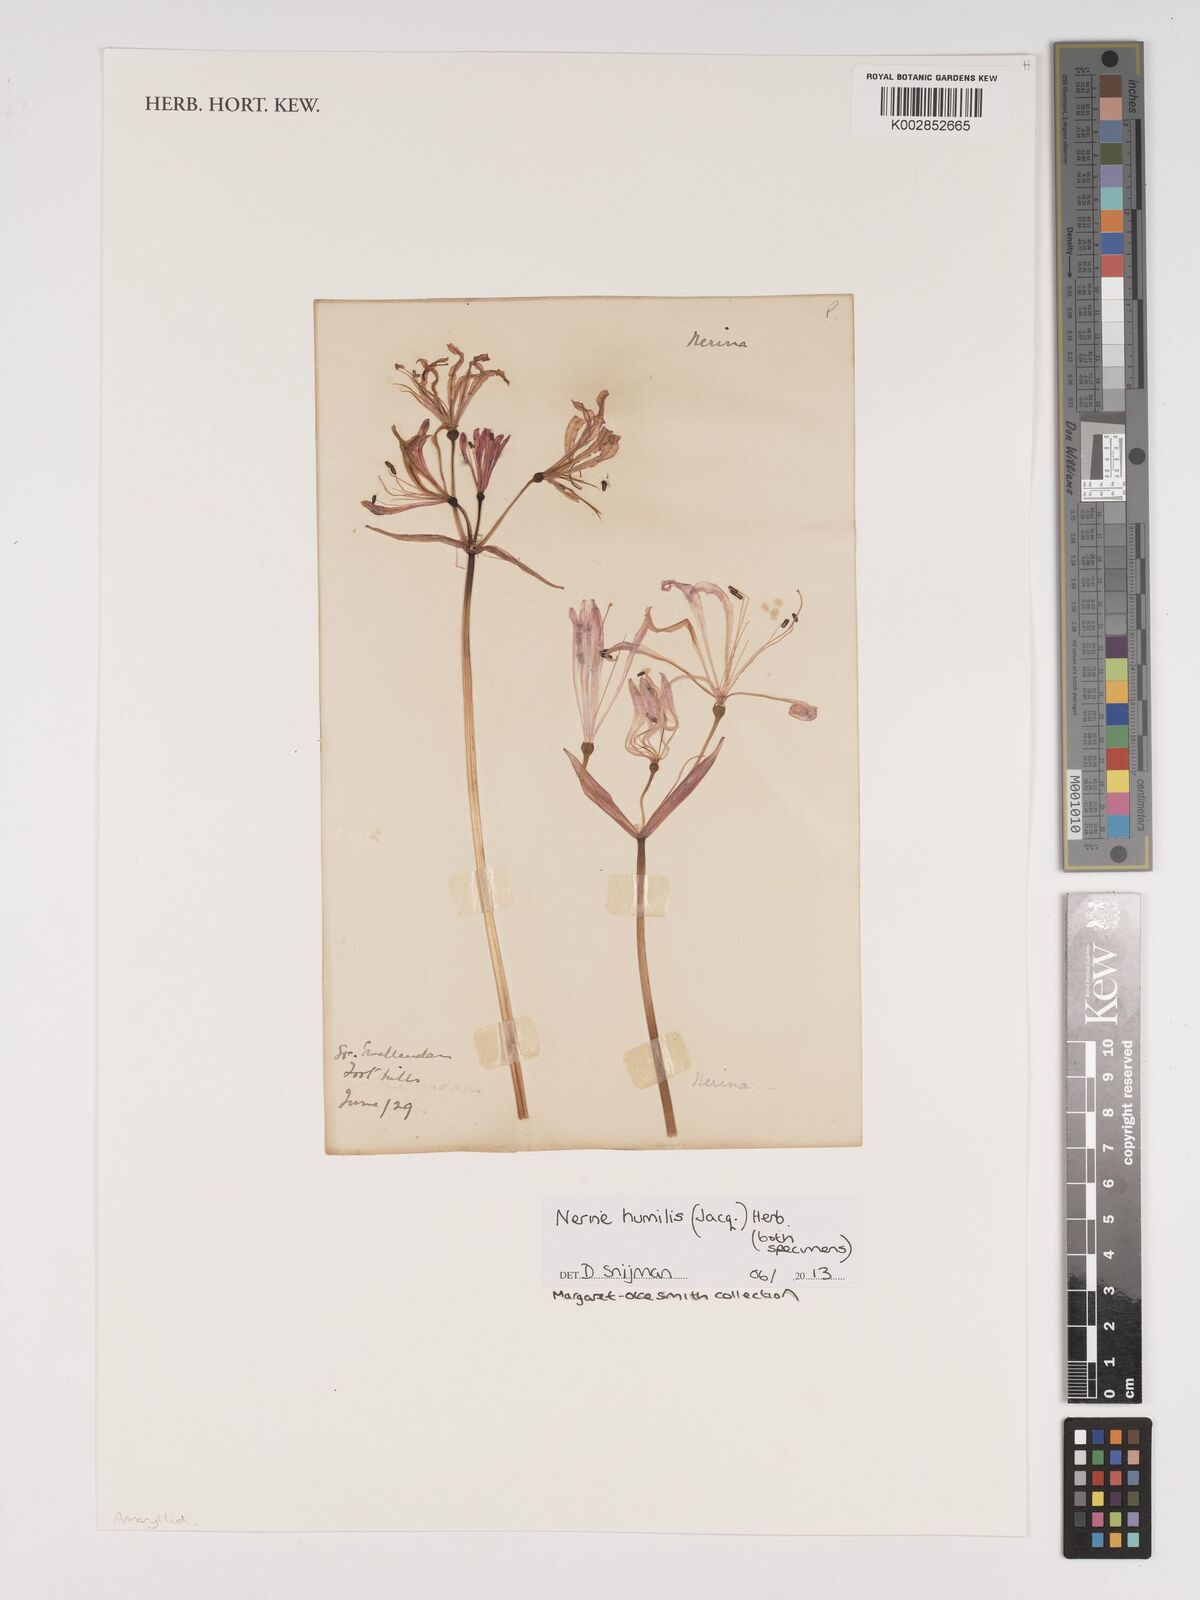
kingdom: Plantae
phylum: Tracheophyta
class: Liliopsida
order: Asparagales
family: Amaryllidaceae
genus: Nerine
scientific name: Nerine humilis
